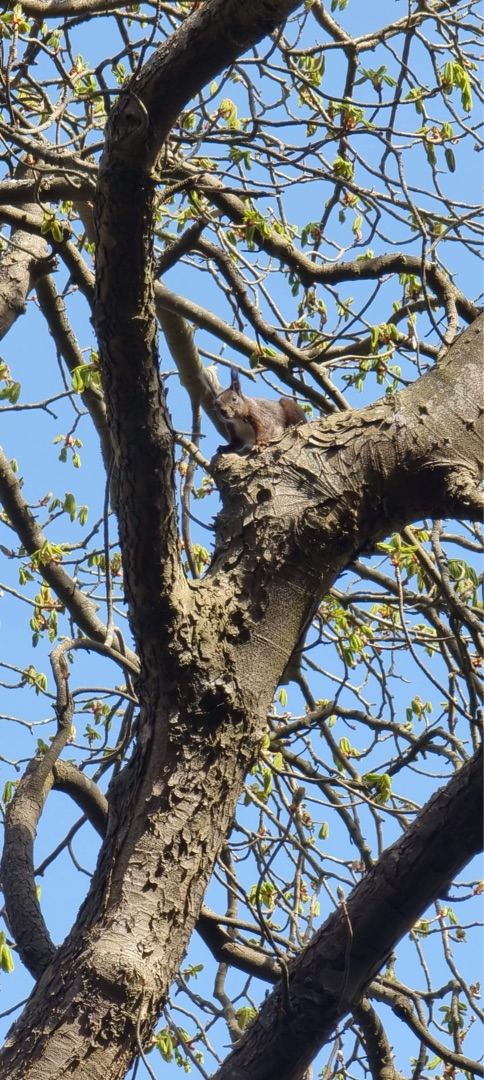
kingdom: Animalia
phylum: Chordata
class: Mammalia
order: Rodentia
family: Sciuridae
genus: Sciurus
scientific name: Sciurus vulgaris
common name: Egern
